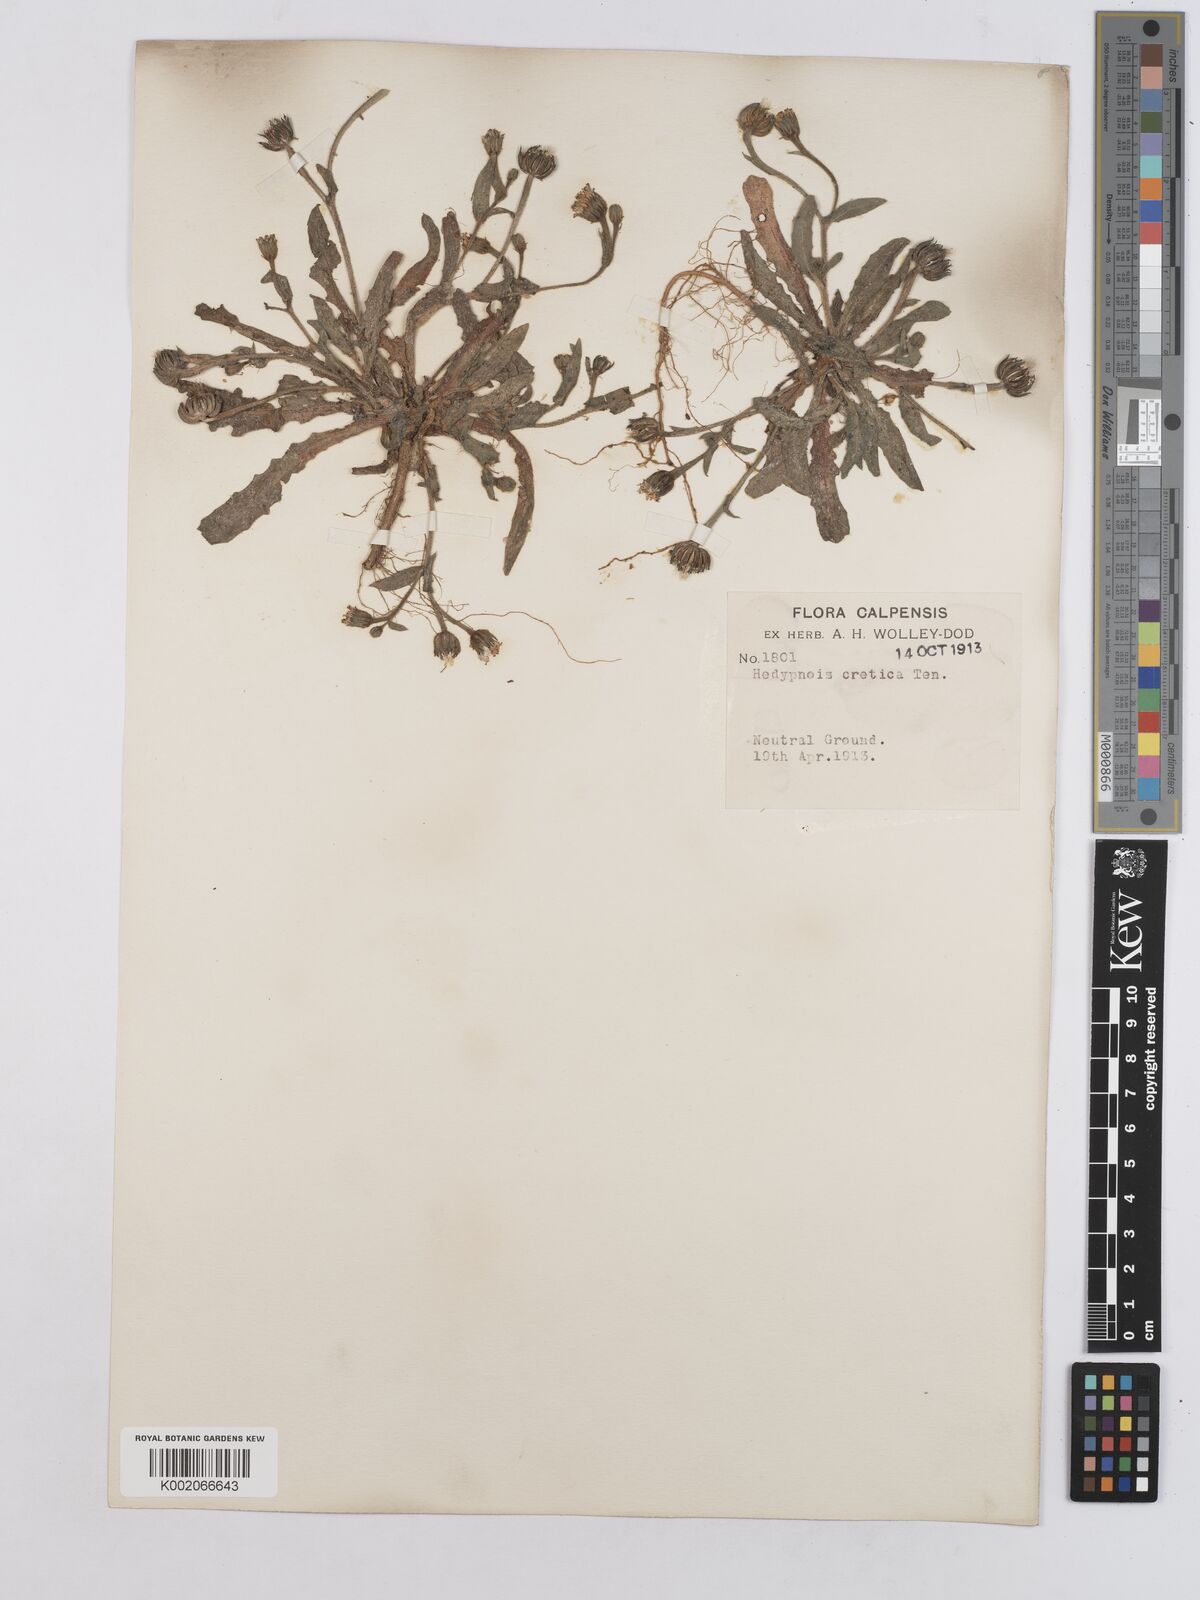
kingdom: Plantae
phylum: Tracheophyta
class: Magnoliopsida
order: Asterales
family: Asteraceae
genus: Hedypnois
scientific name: Hedypnois rhagadioloides
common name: Cretan weed
